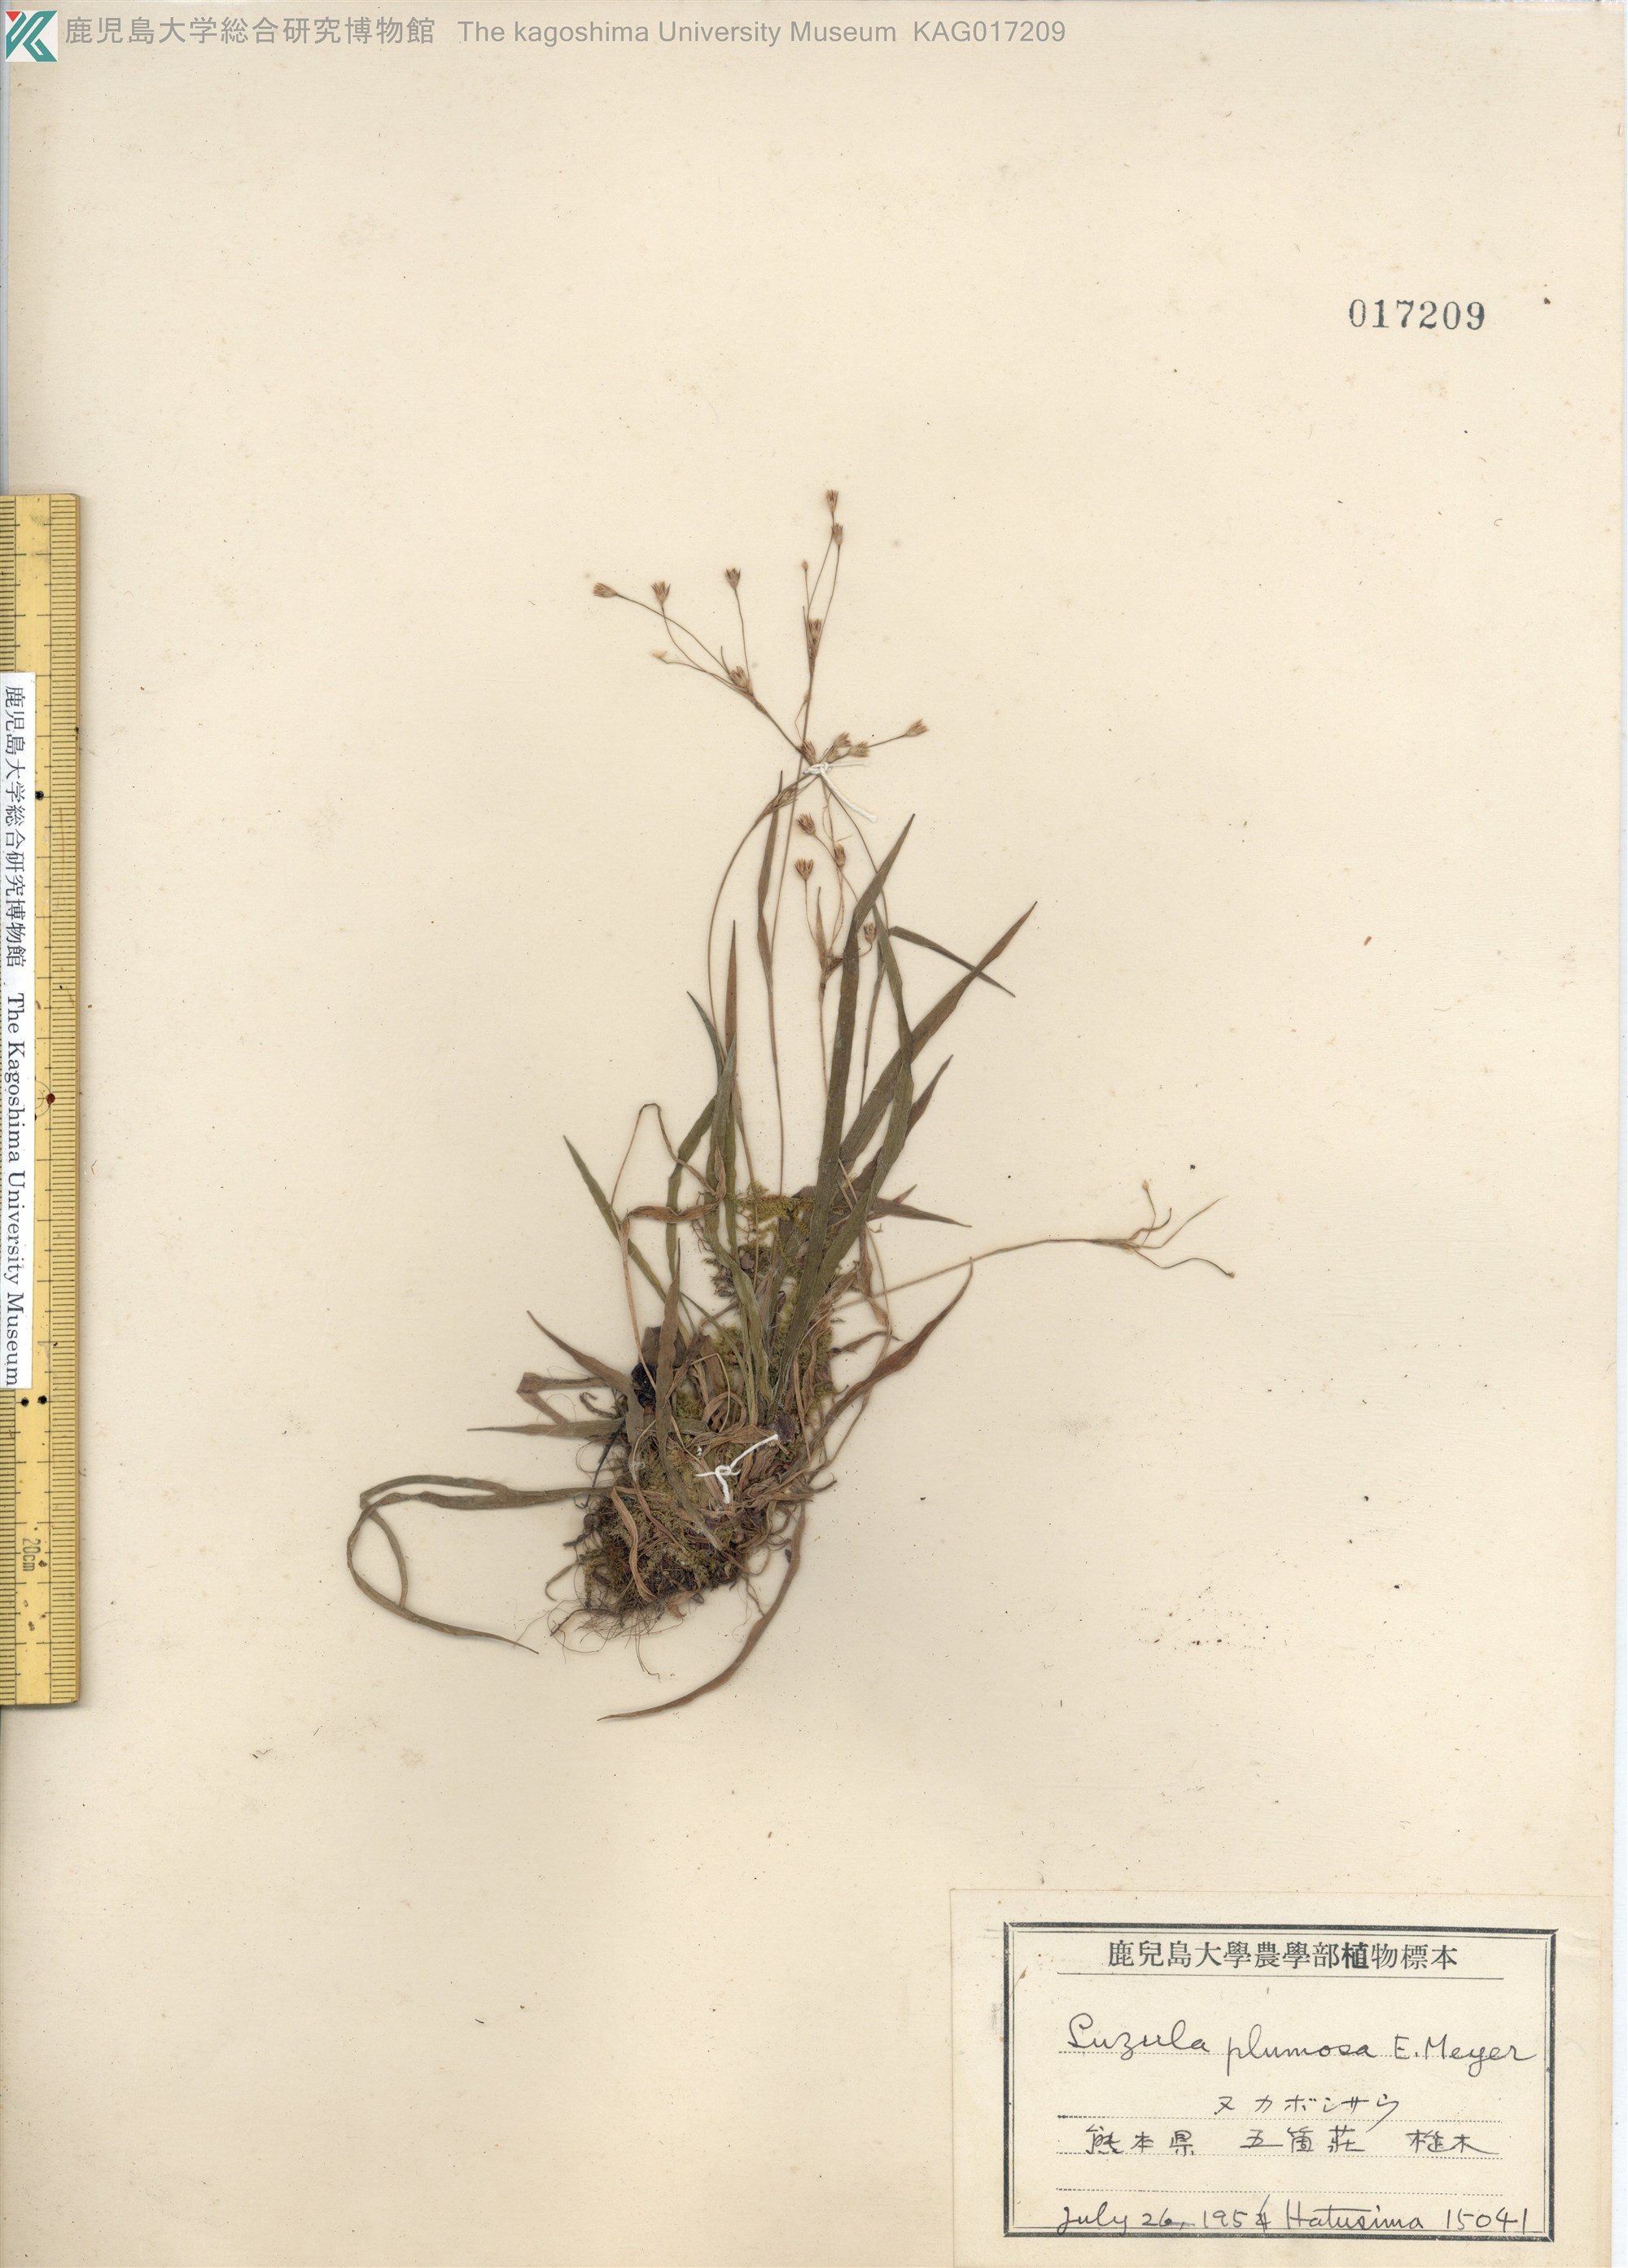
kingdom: Plantae
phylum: Tracheophyta
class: Liliopsida
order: Poales
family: Juncaceae
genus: Luzula
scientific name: Luzula plumosa
